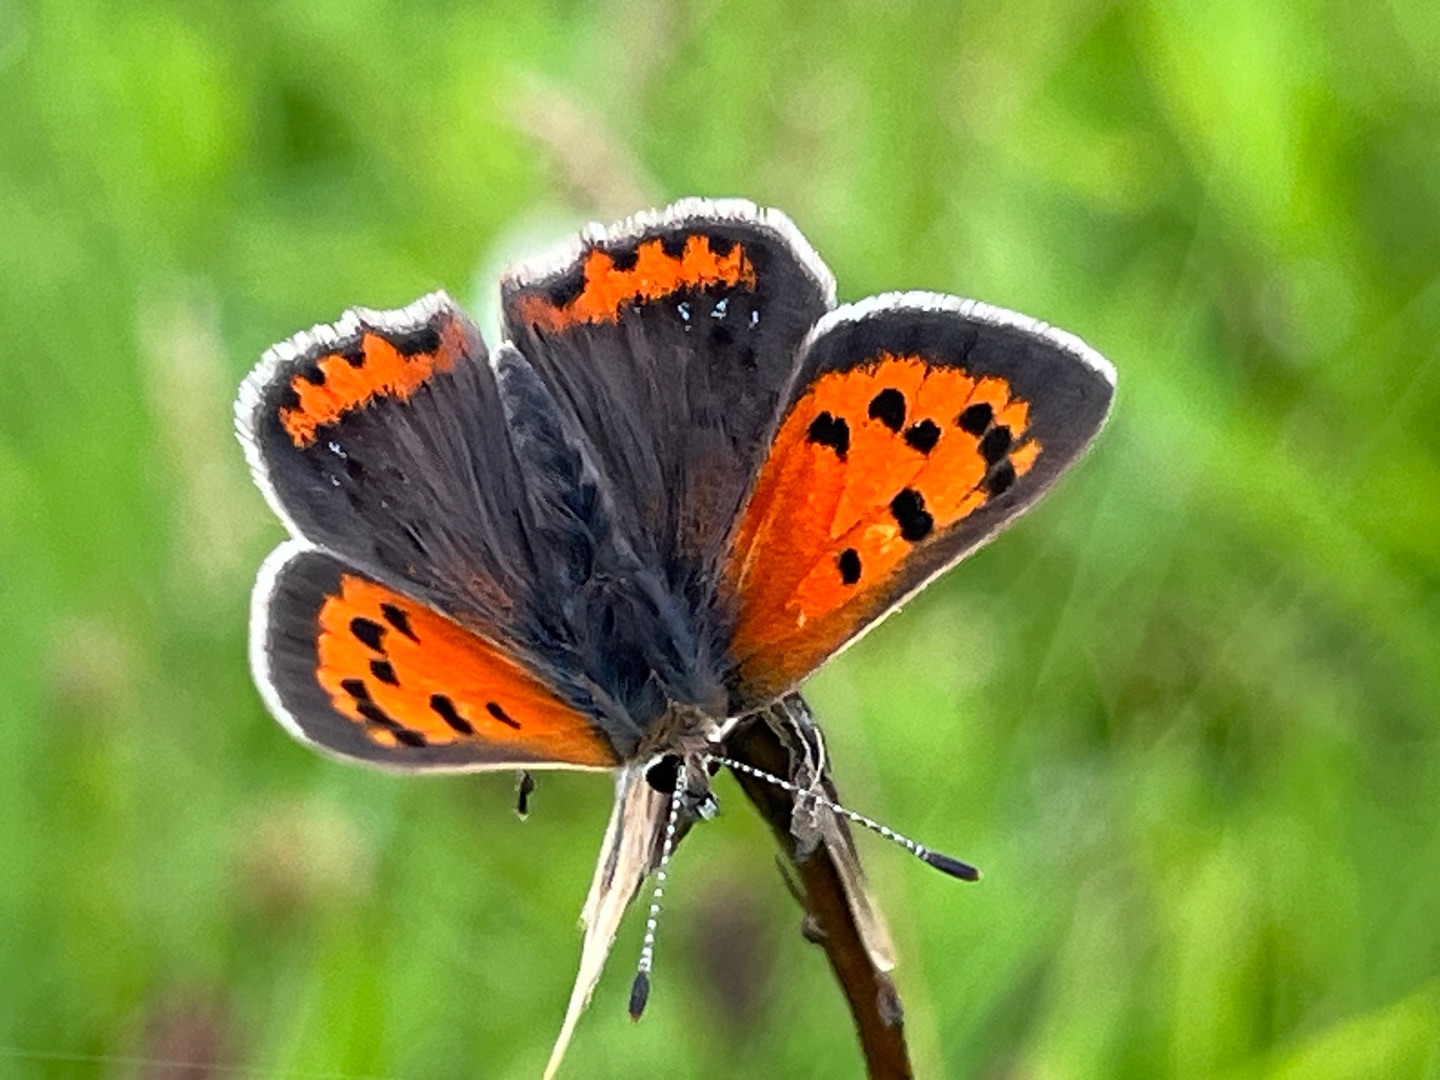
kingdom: Animalia
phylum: Arthropoda
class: Insecta
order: Lepidoptera
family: Lycaenidae
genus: Lycaena
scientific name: Lycaena phlaeas
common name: Lille ildfugl
